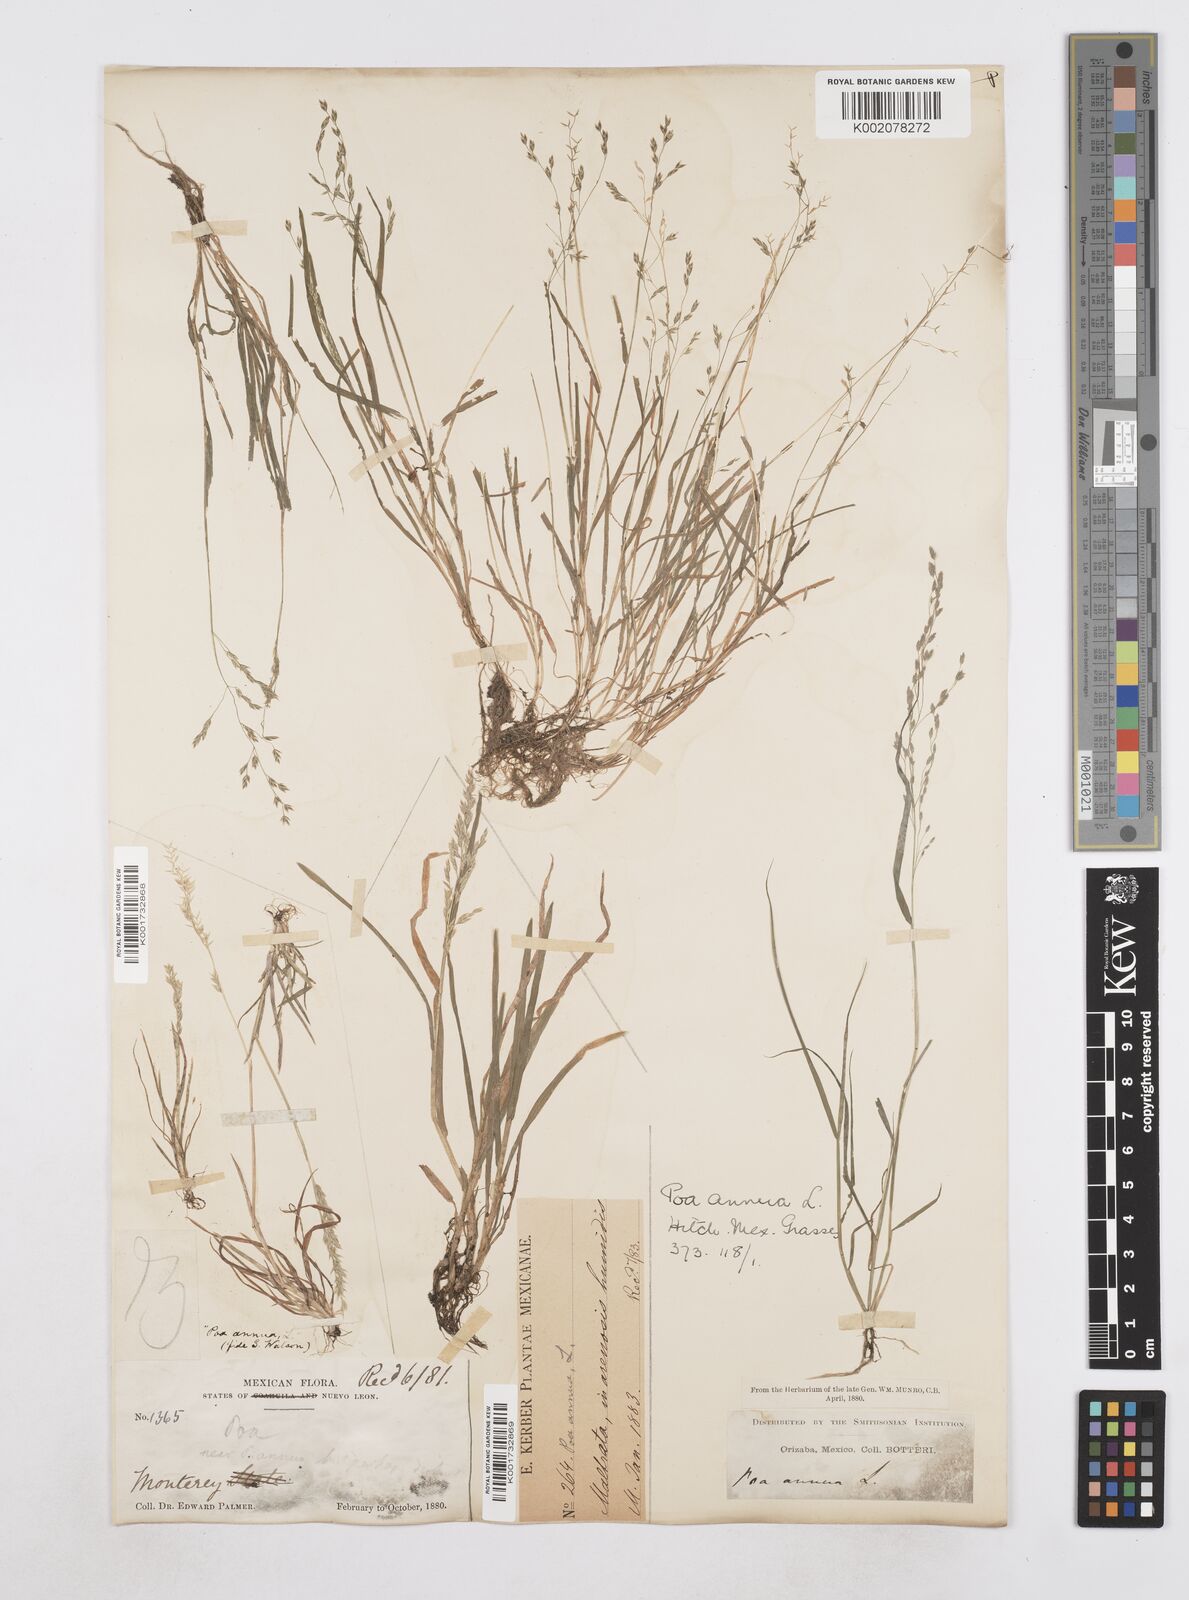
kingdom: Plantae
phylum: Tracheophyta
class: Liliopsida
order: Poales
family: Poaceae
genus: Poa
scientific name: Poa annua
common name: Annual bluegrass
